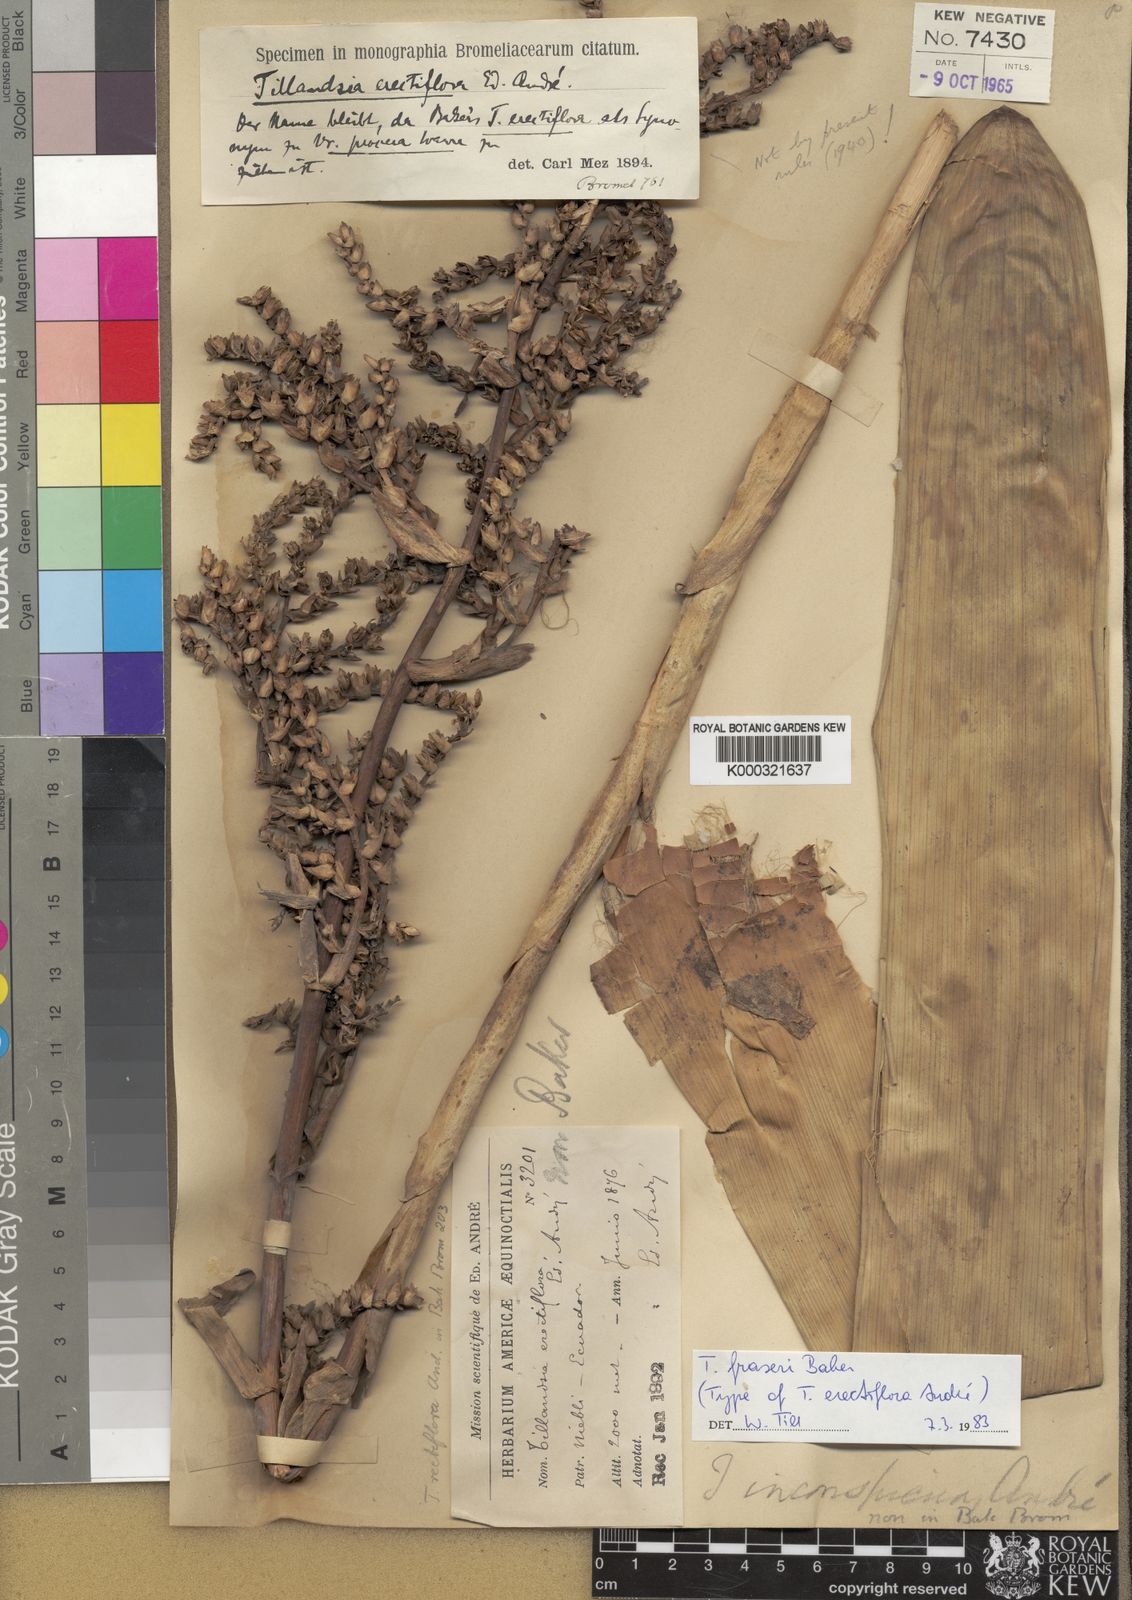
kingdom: Plantae
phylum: Tracheophyta
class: Liliopsida
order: Poales
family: Bromeliaceae
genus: Racinaea
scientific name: Racinaea fraseri
